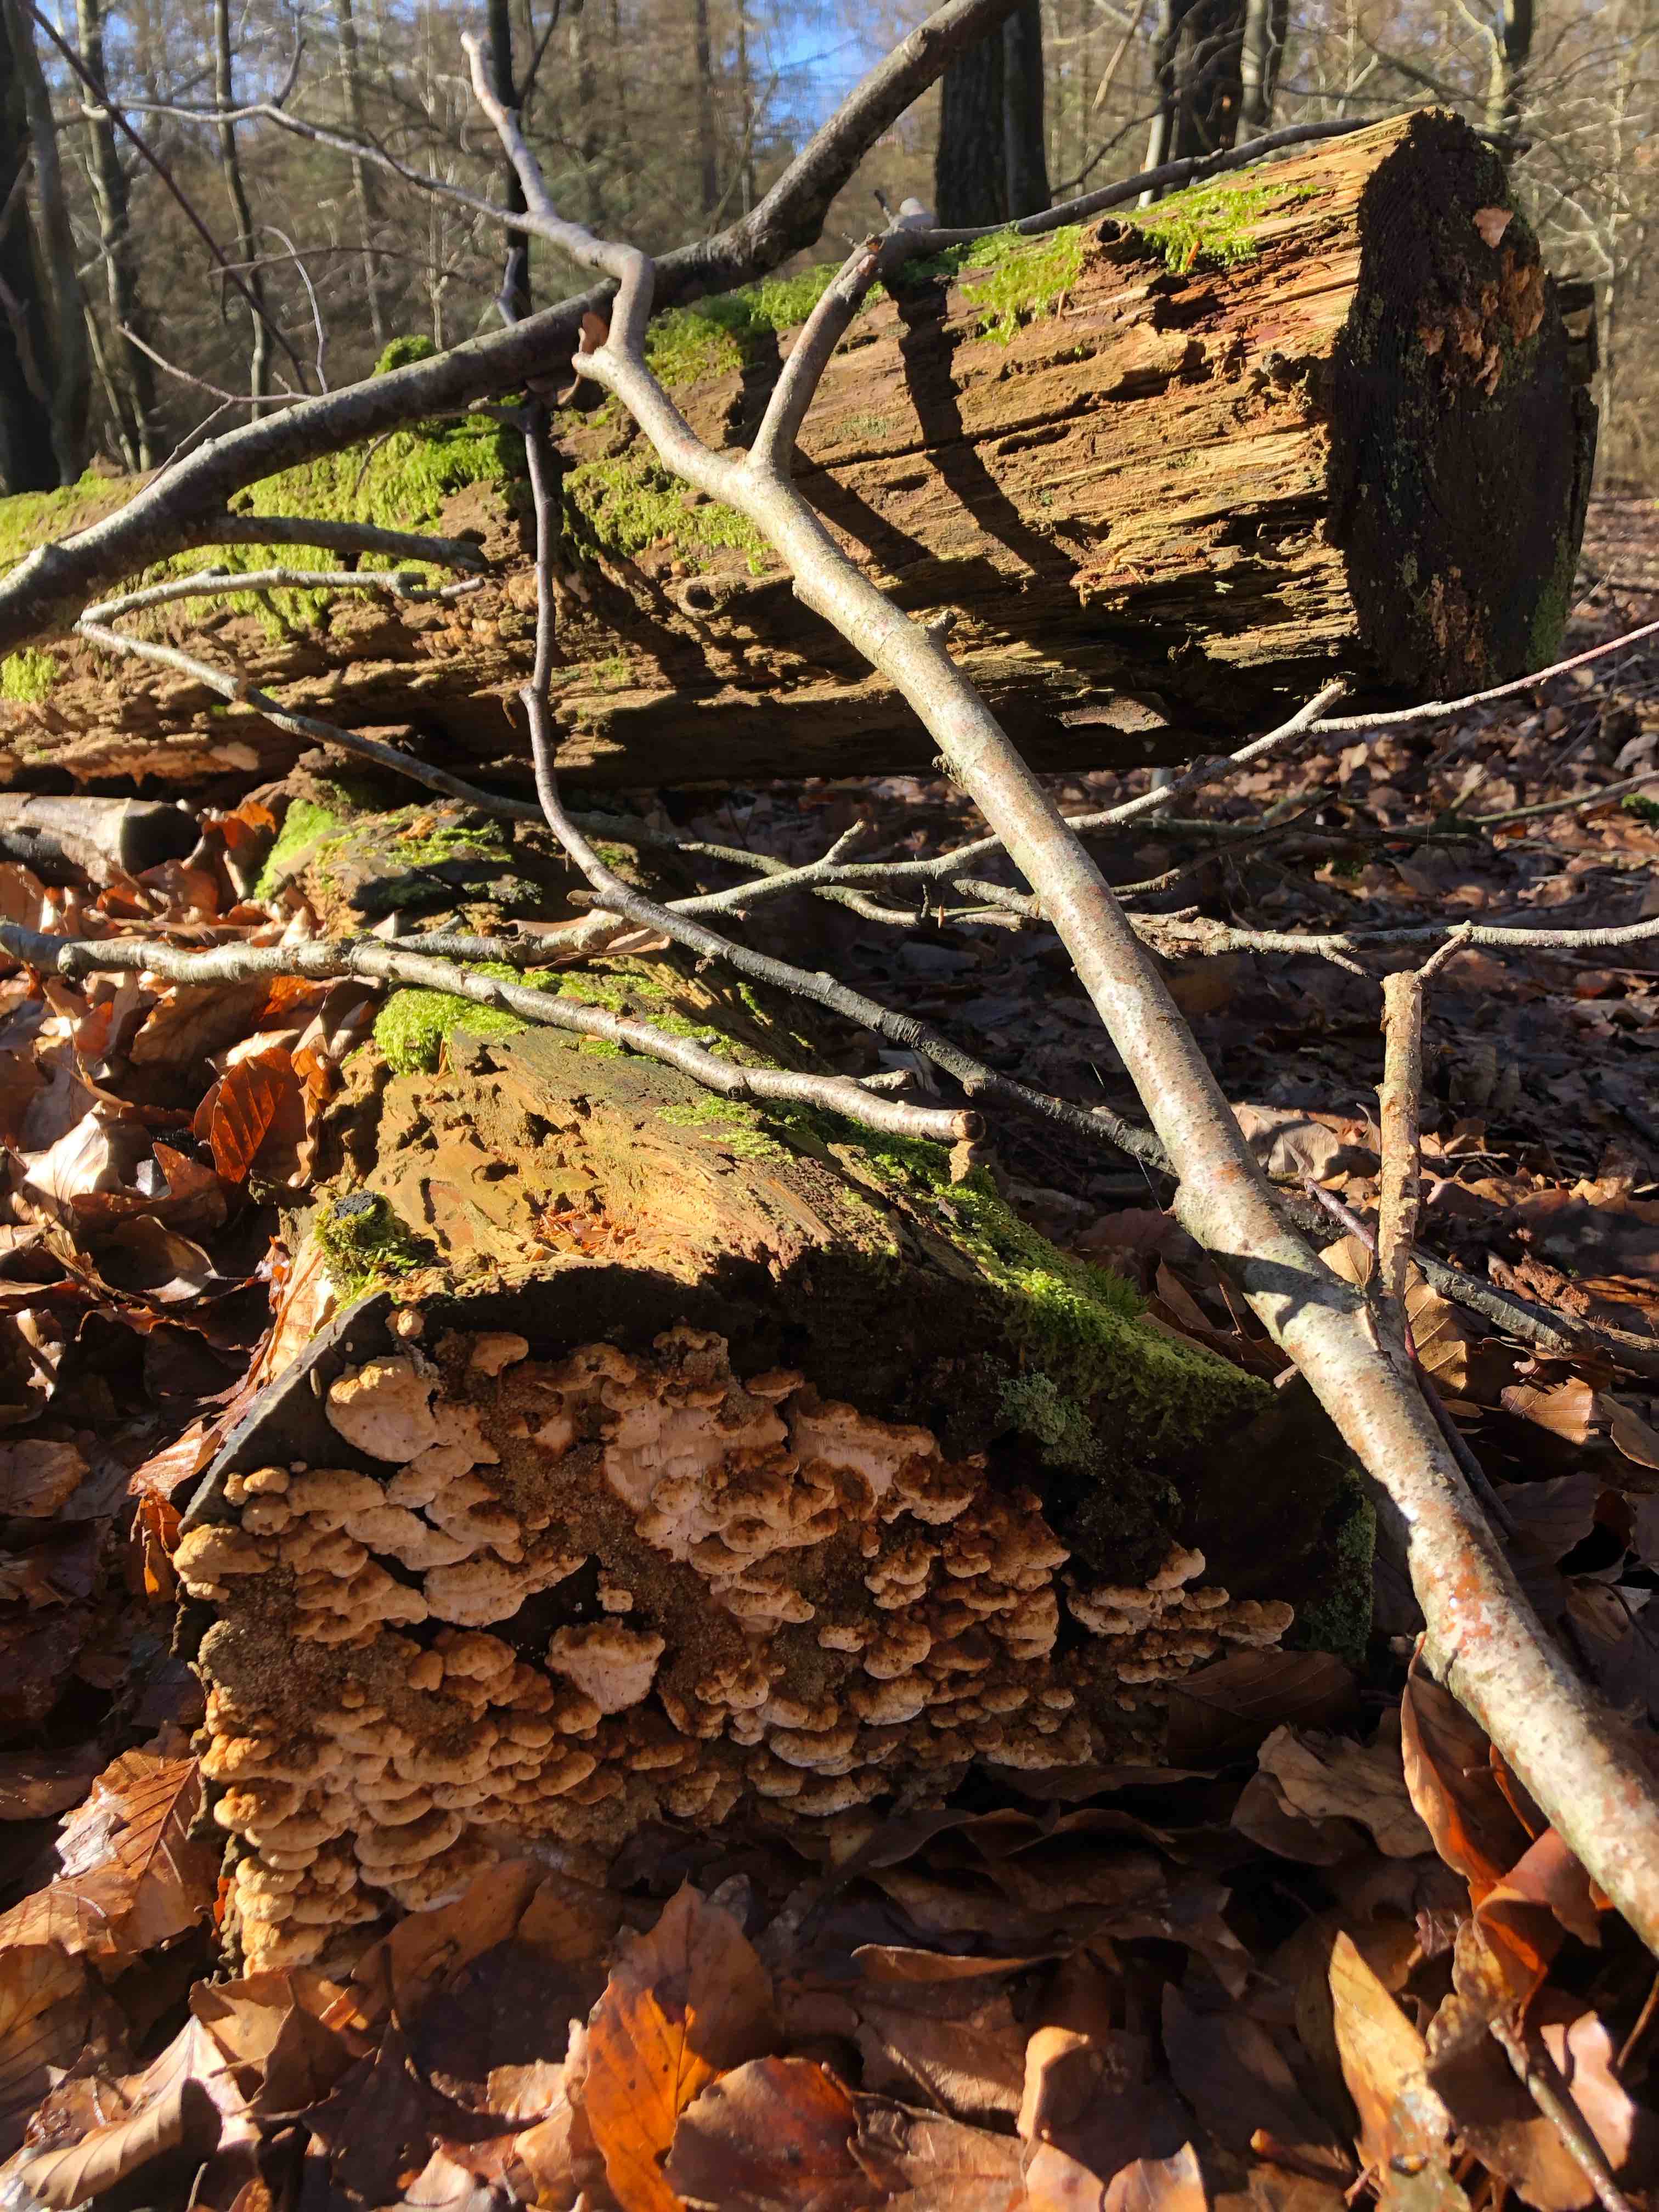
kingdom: Fungi
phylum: Basidiomycota
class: Agaricomycetes
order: Polyporales
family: Fomitopsidaceae
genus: Neoantrodia
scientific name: Neoantrodia serialis
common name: række-sejporesvamp
